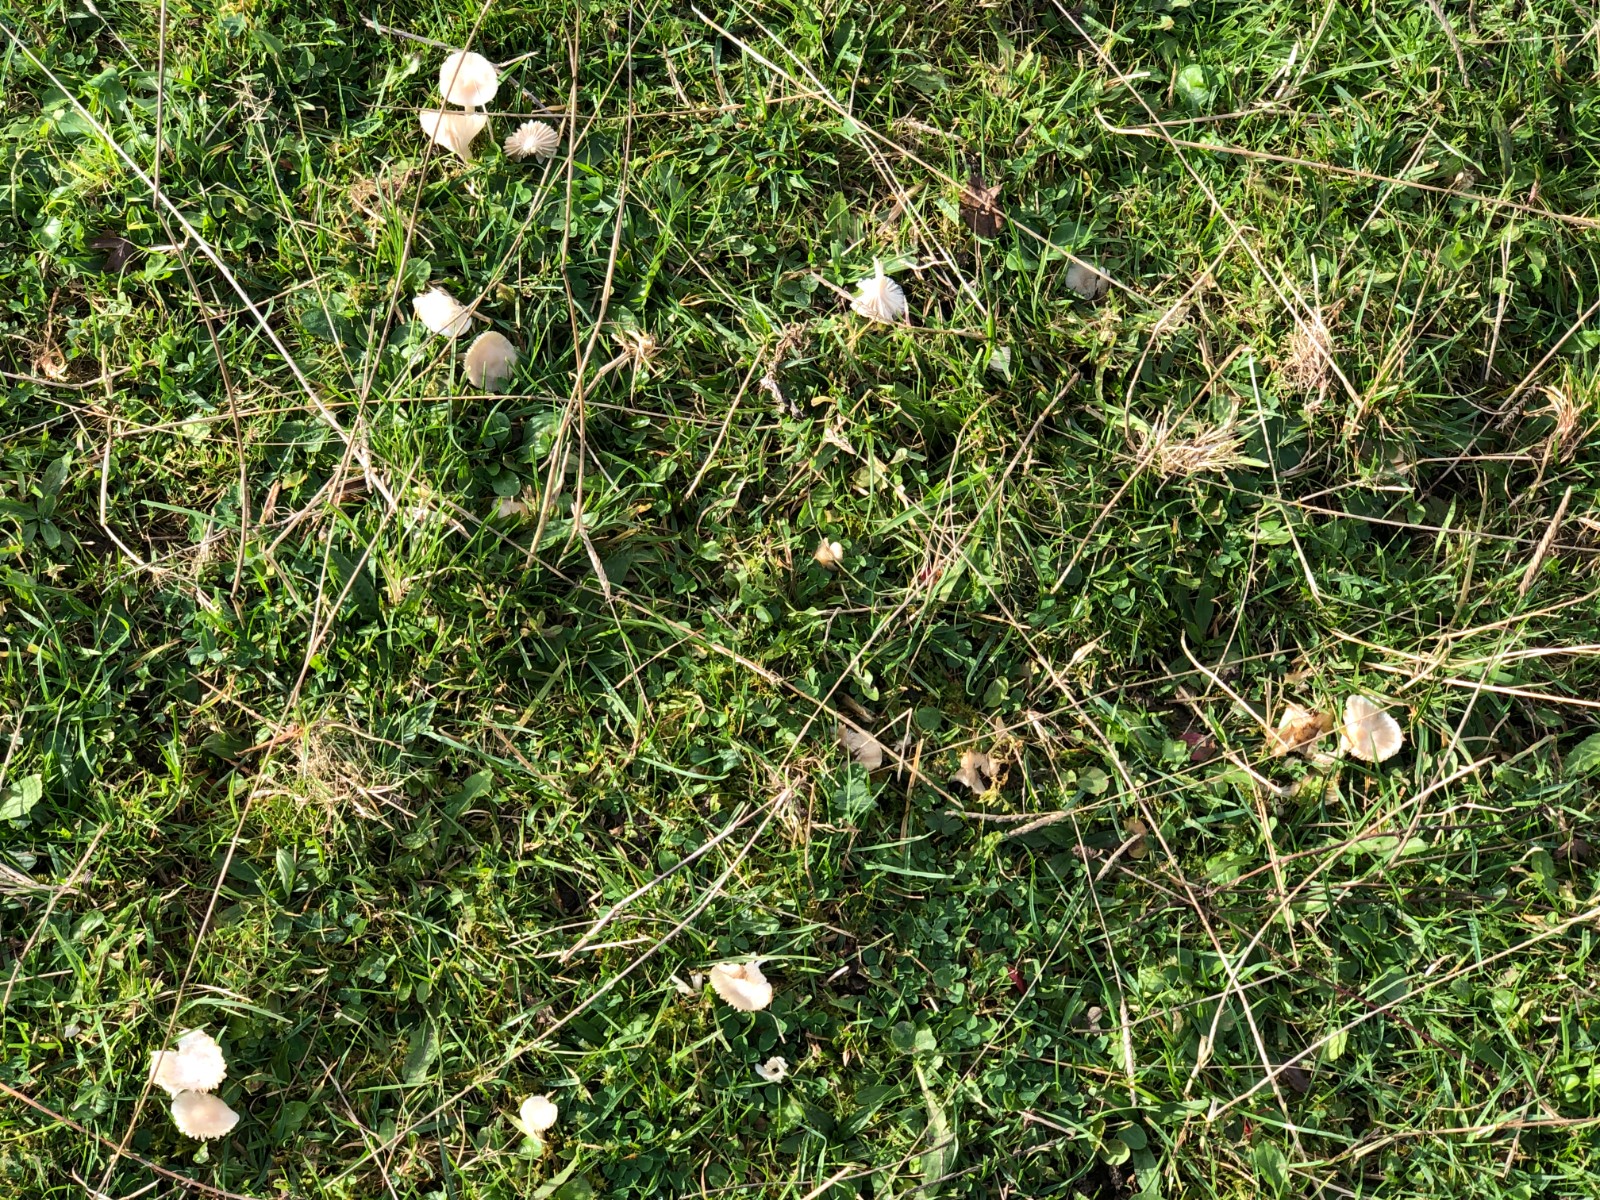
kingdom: Fungi
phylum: Basidiomycota
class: Agaricomycetes
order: Agaricales
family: Hygrophoraceae
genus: Cuphophyllus
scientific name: Cuphophyllus russocoriaceus
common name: ruslæder-vokshat
